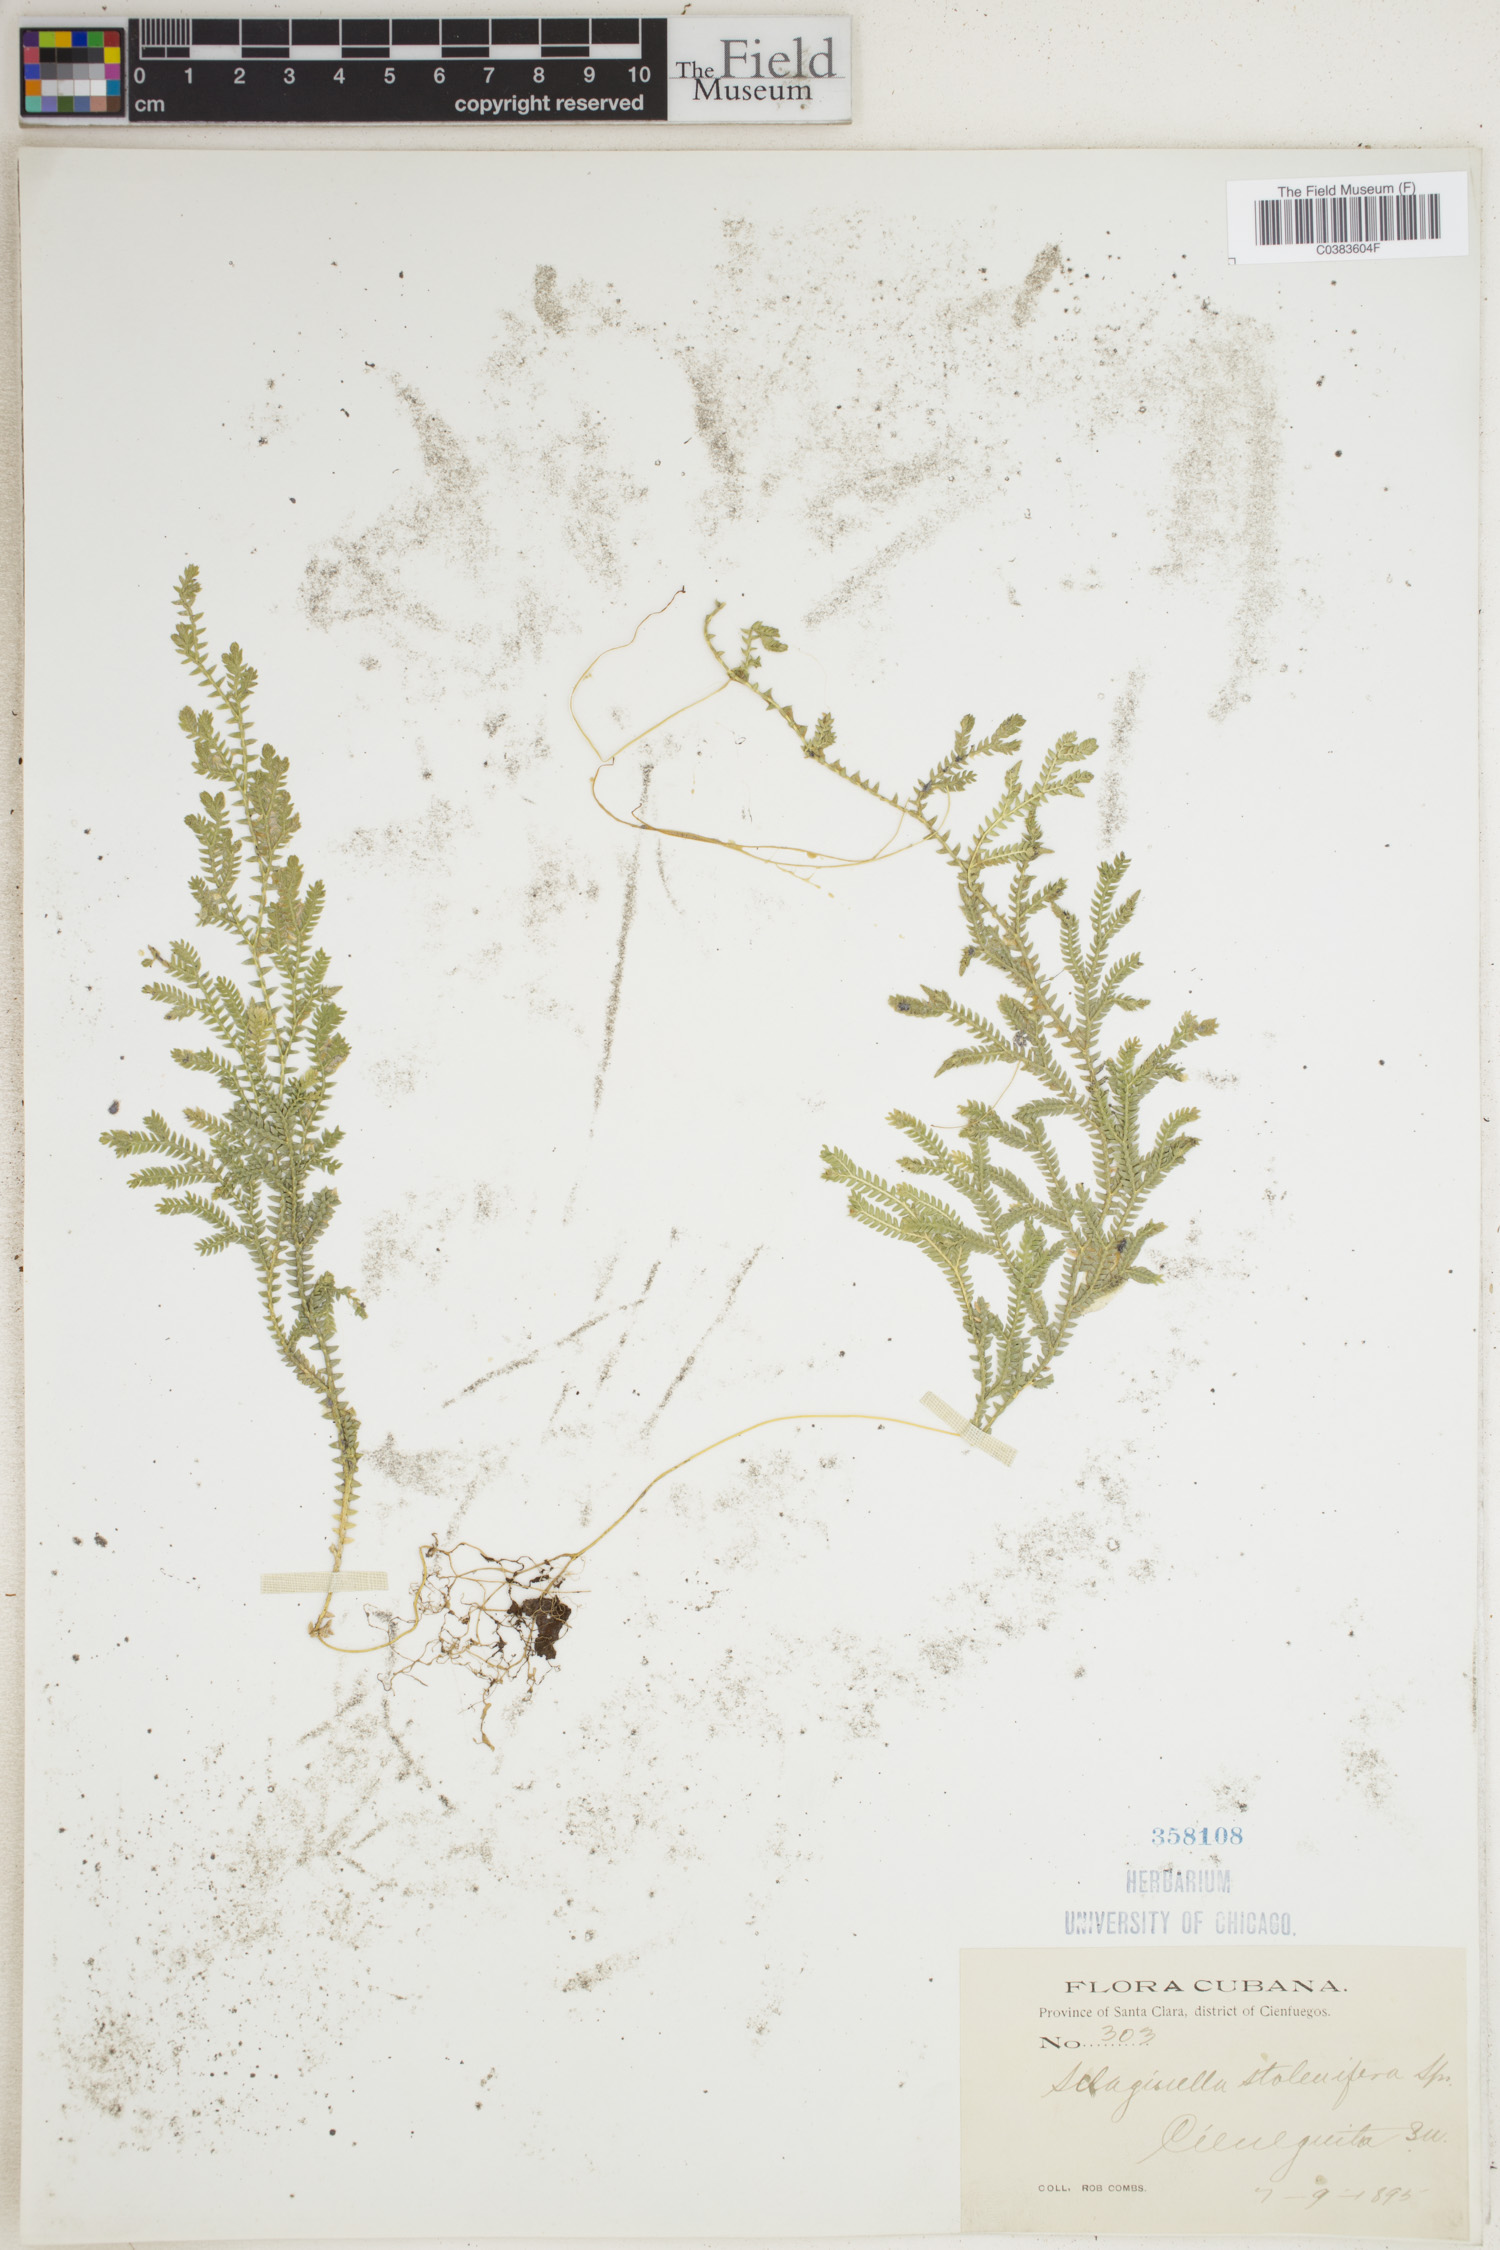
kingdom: Plantae
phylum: Tracheophyta
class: Lycopodiopsida
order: Selaginellales
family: Selaginellaceae
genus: Selaginella
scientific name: Selaginella plumosa
